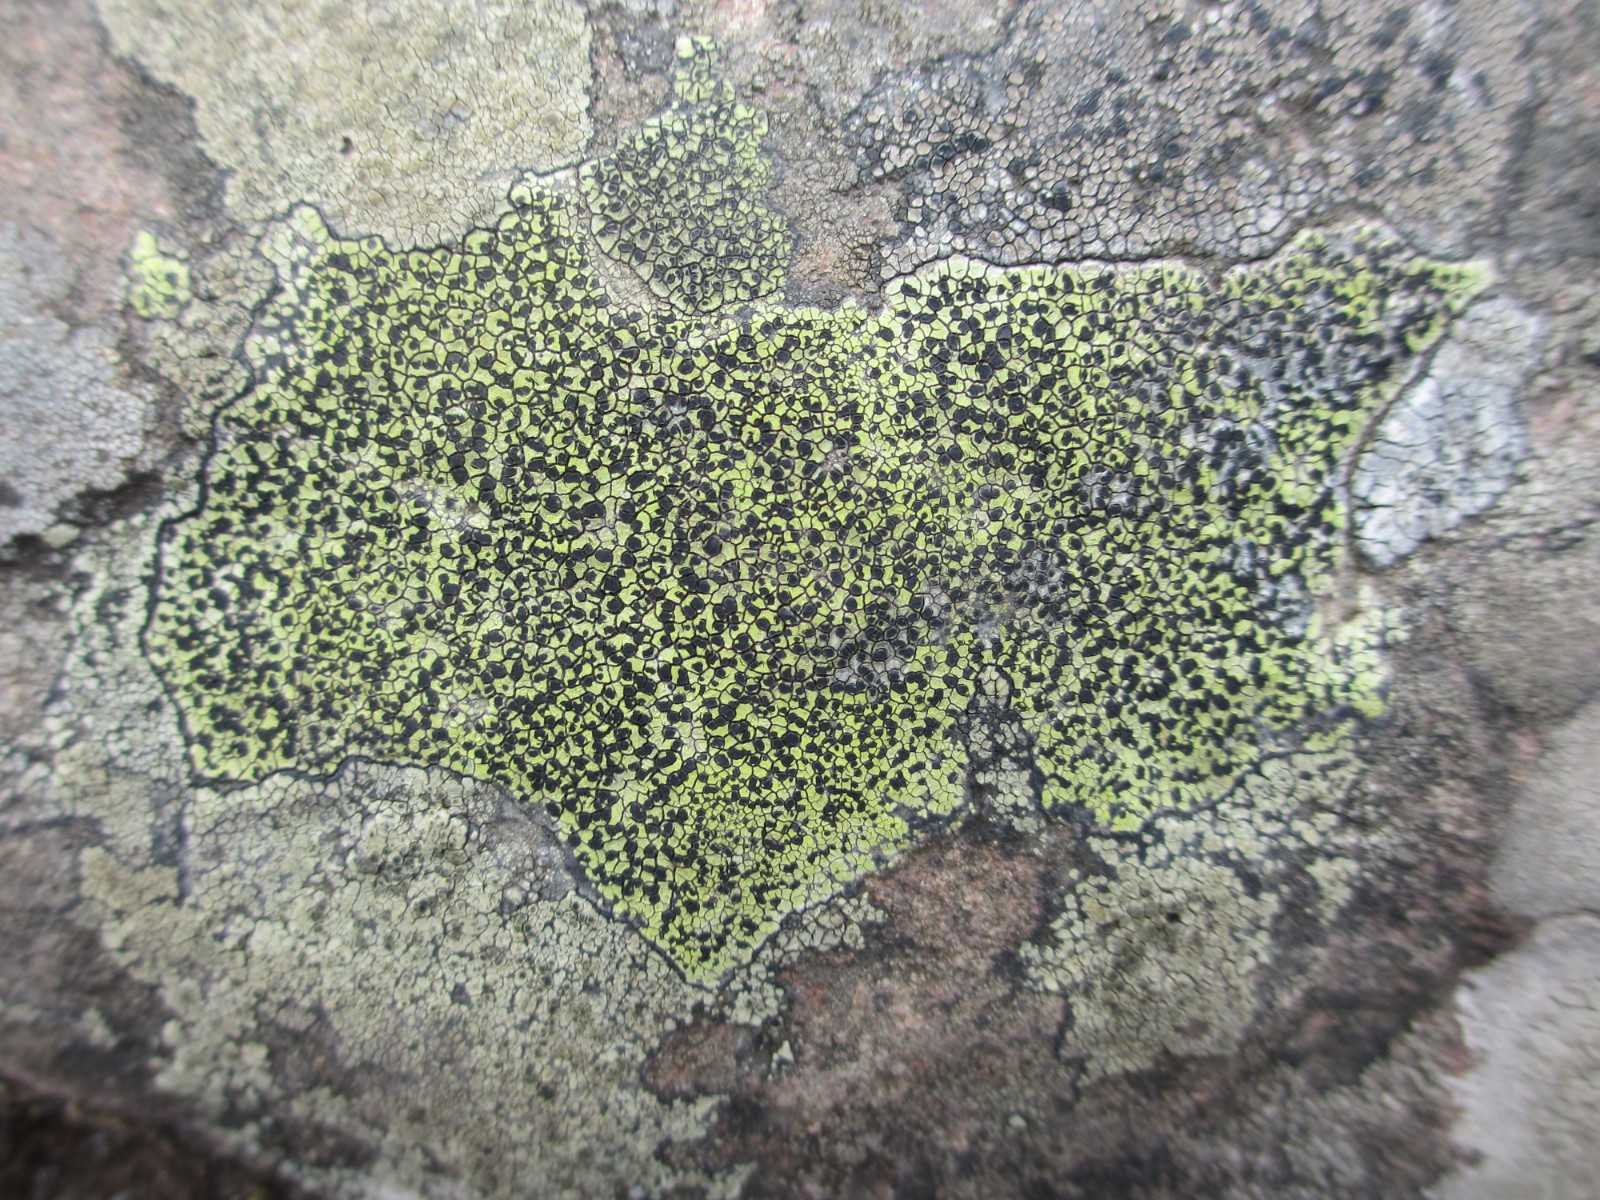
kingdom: Fungi
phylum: Ascomycota
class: Lecanoromycetes
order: Rhizocarpales
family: Rhizocarpaceae
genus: Rhizocarpon
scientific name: Rhizocarpon geographicum
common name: gulgrøn landkortlav
